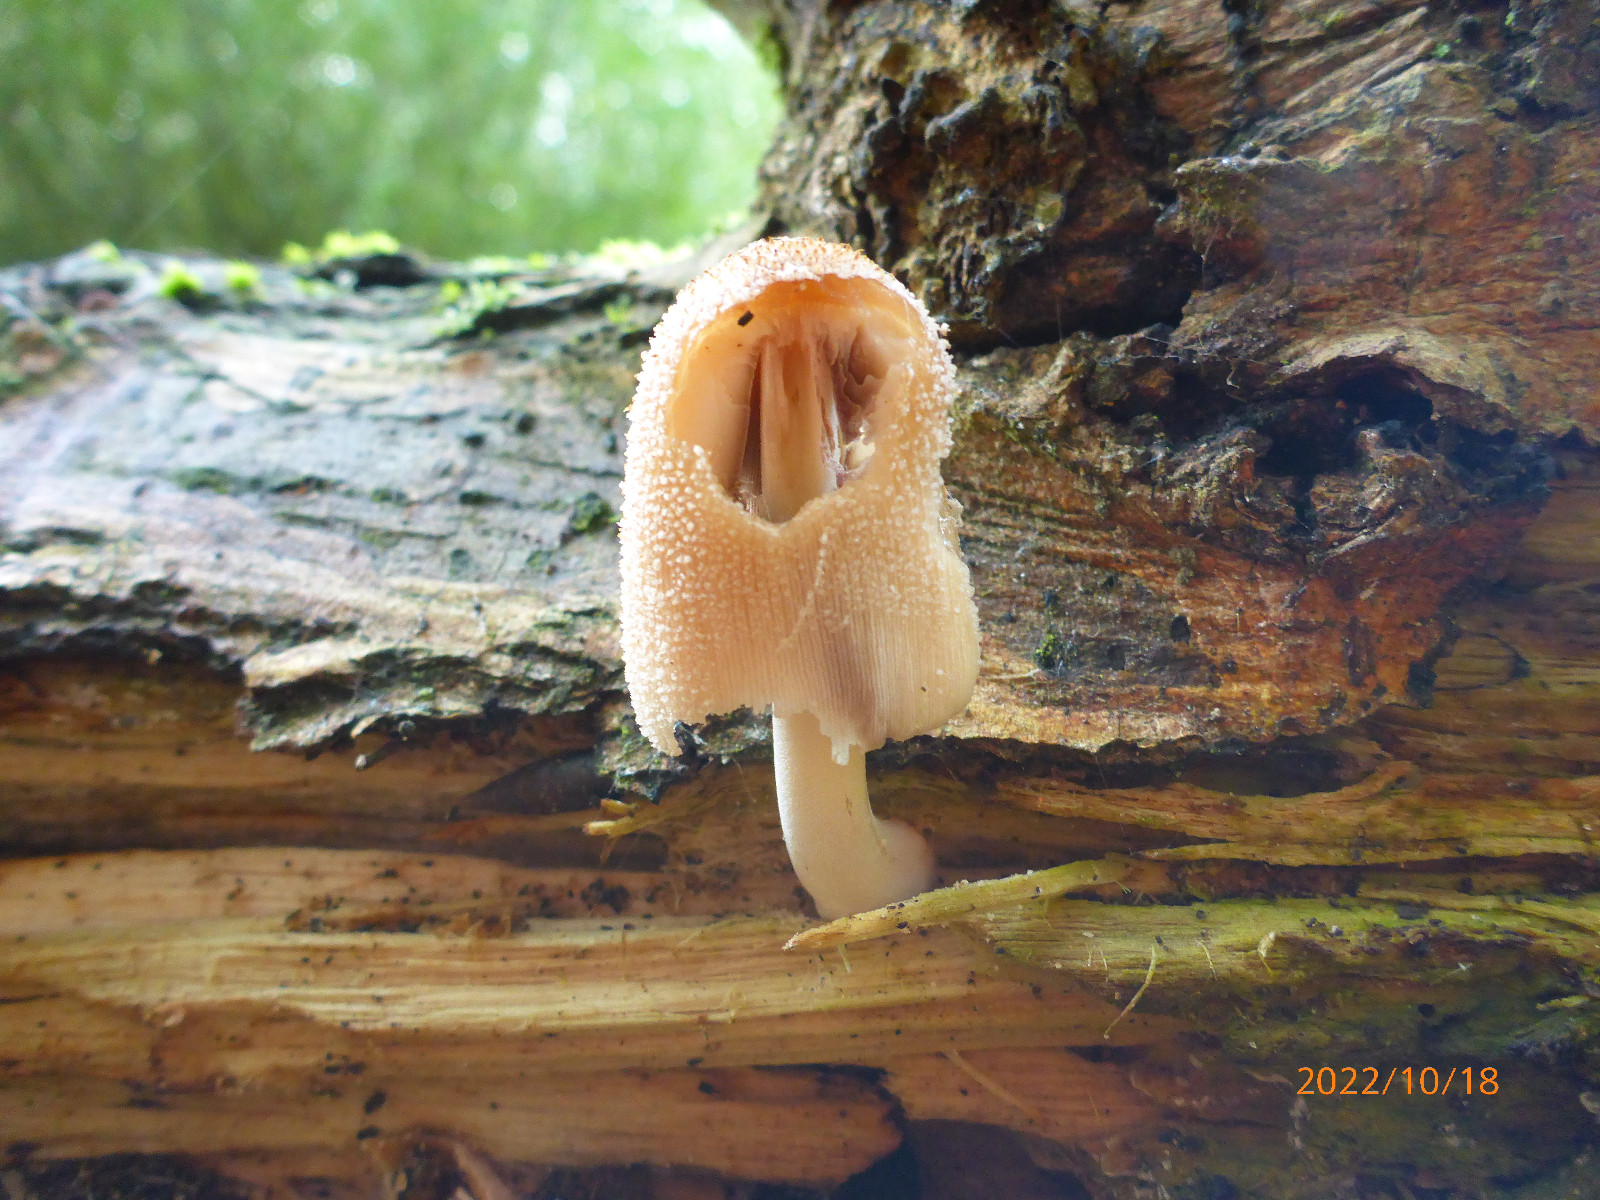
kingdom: Fungi
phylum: Basidiomycota
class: Agaricomycetes
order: Agaricales
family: Psathyrellaceae
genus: Coprinellus
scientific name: Coprinellus
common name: blækhat
